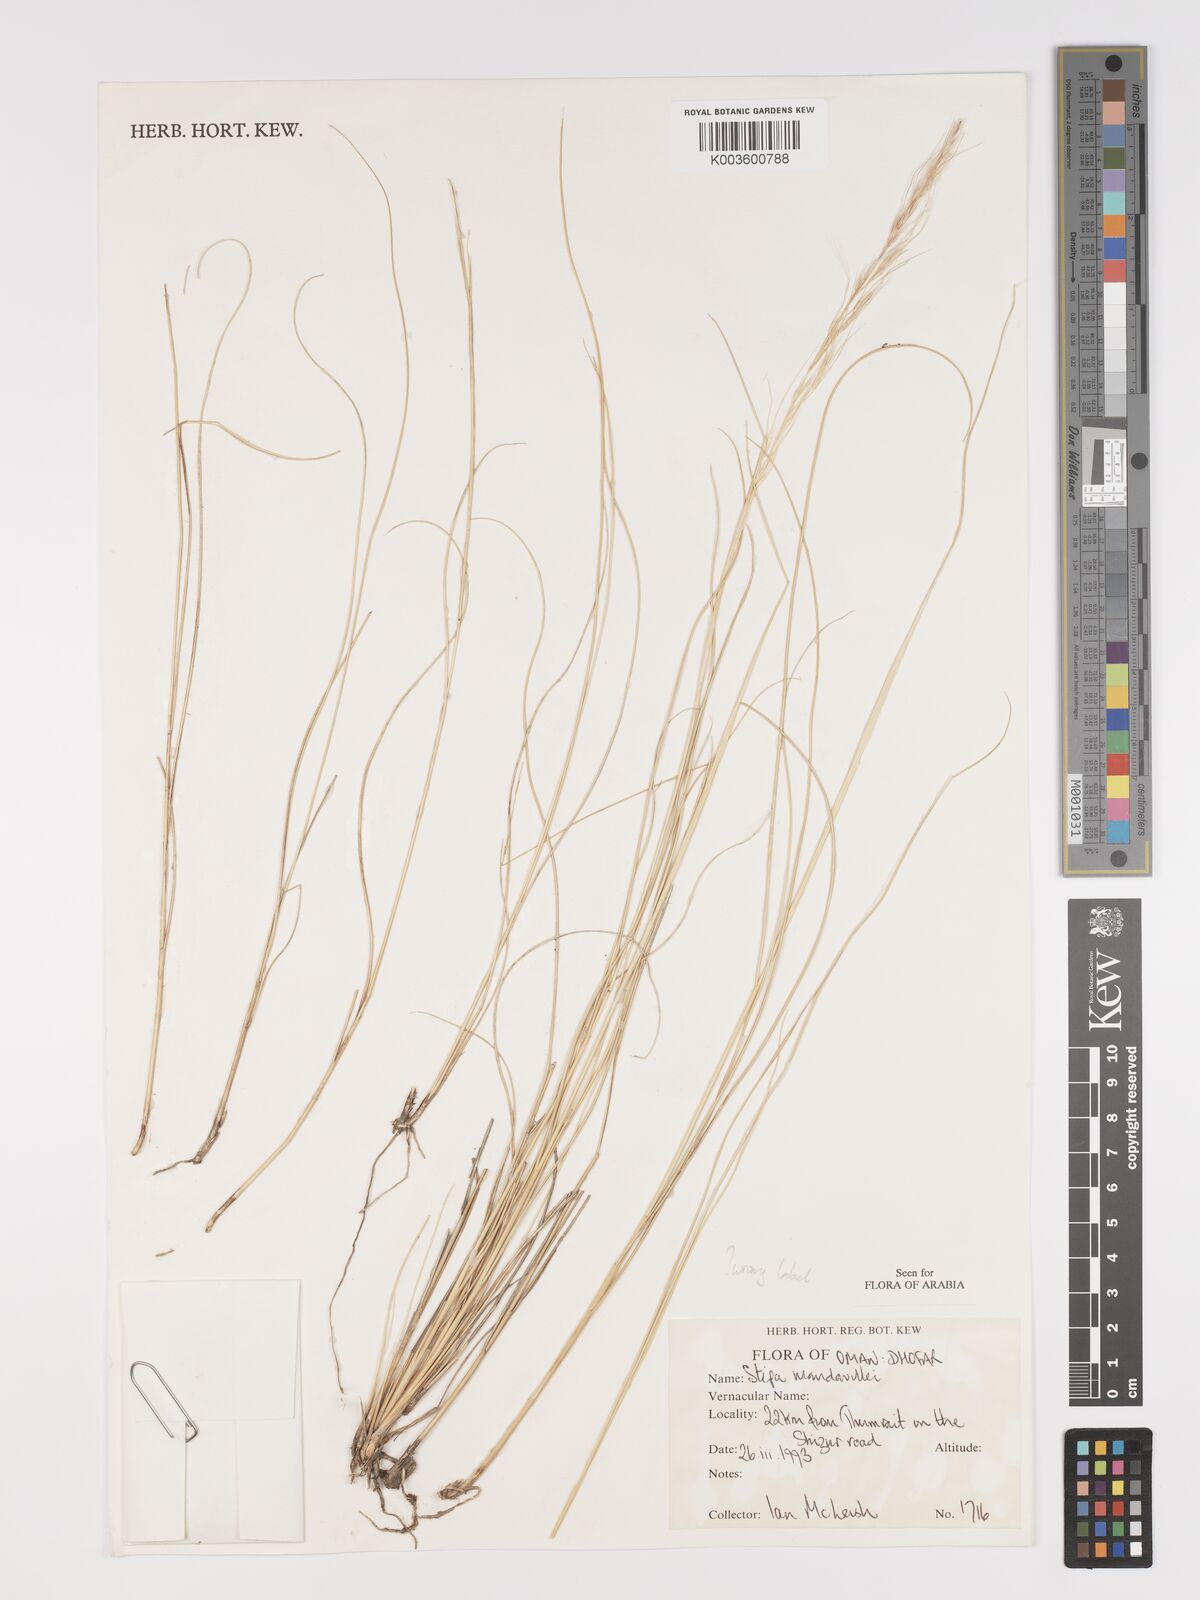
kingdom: Plantae
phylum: Tracheophyta
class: Liliopsida
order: Poales
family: Poaceae
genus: Achnatherum
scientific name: Achnatherum mandavillei
